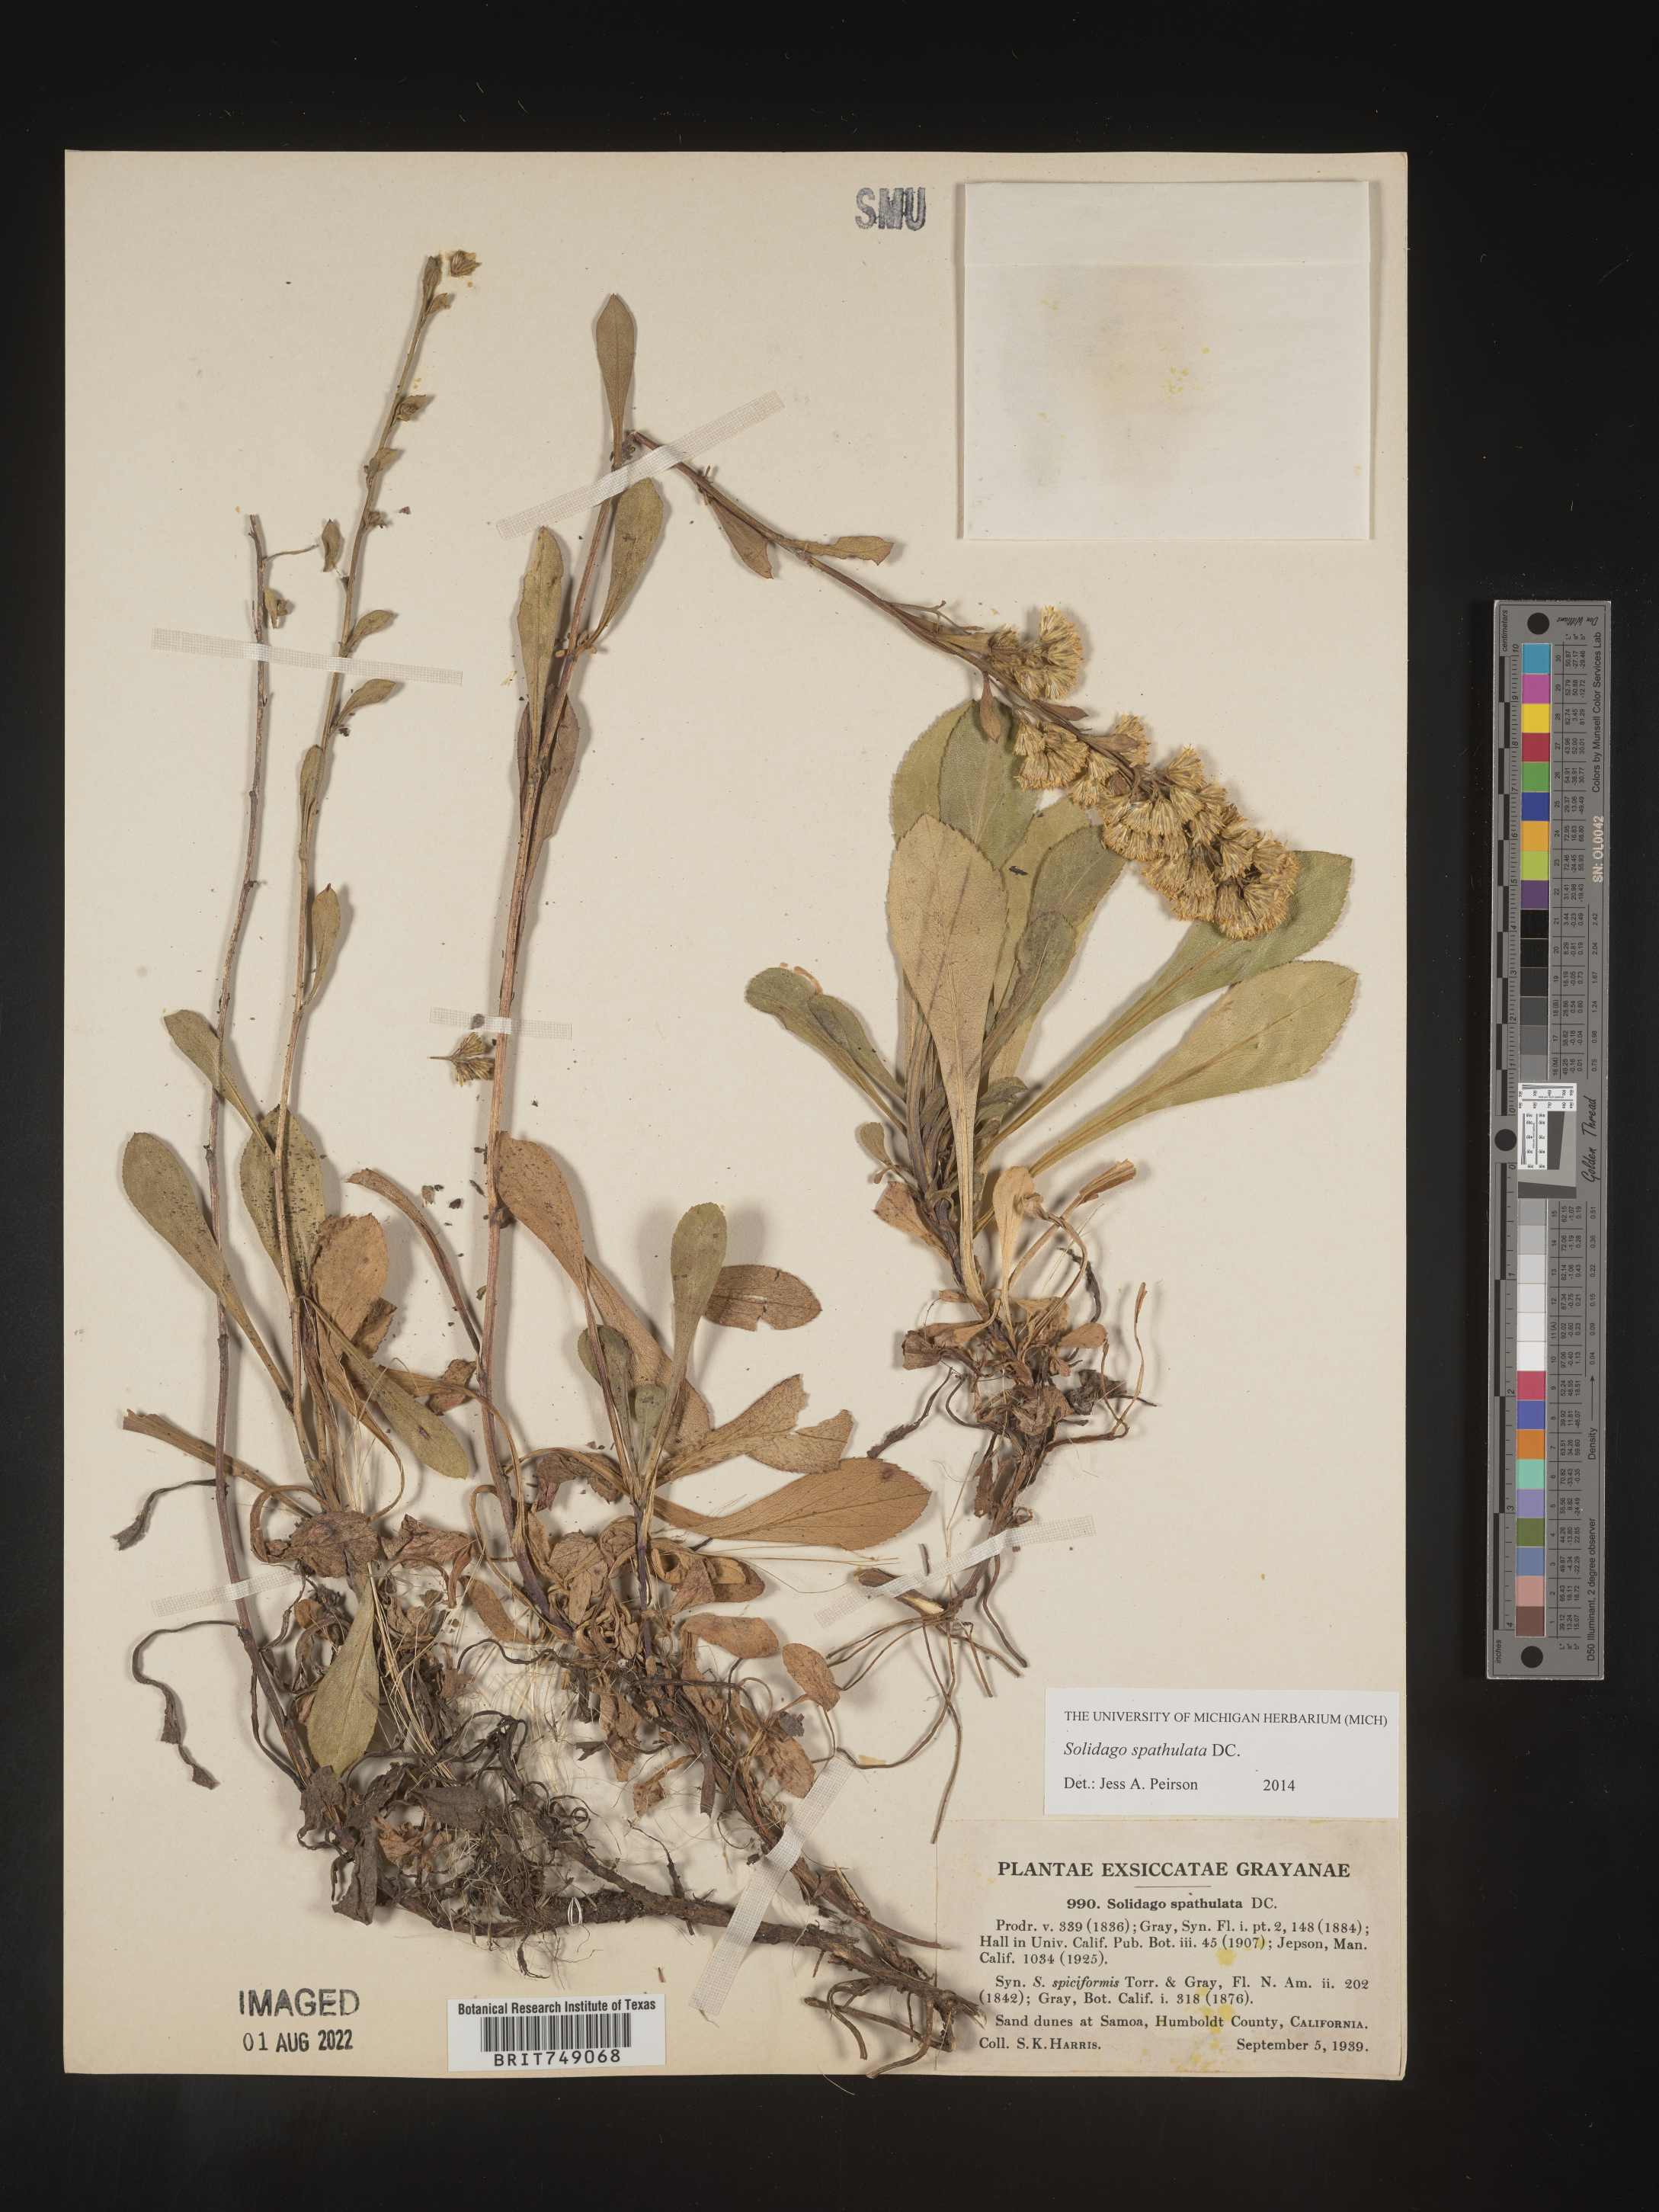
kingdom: Plantae
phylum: Tracheophyta
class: Magnoliopsida
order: Asterales
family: Asteraceae
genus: Solidago
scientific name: Solidago spathulata
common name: Coast goldenrod
